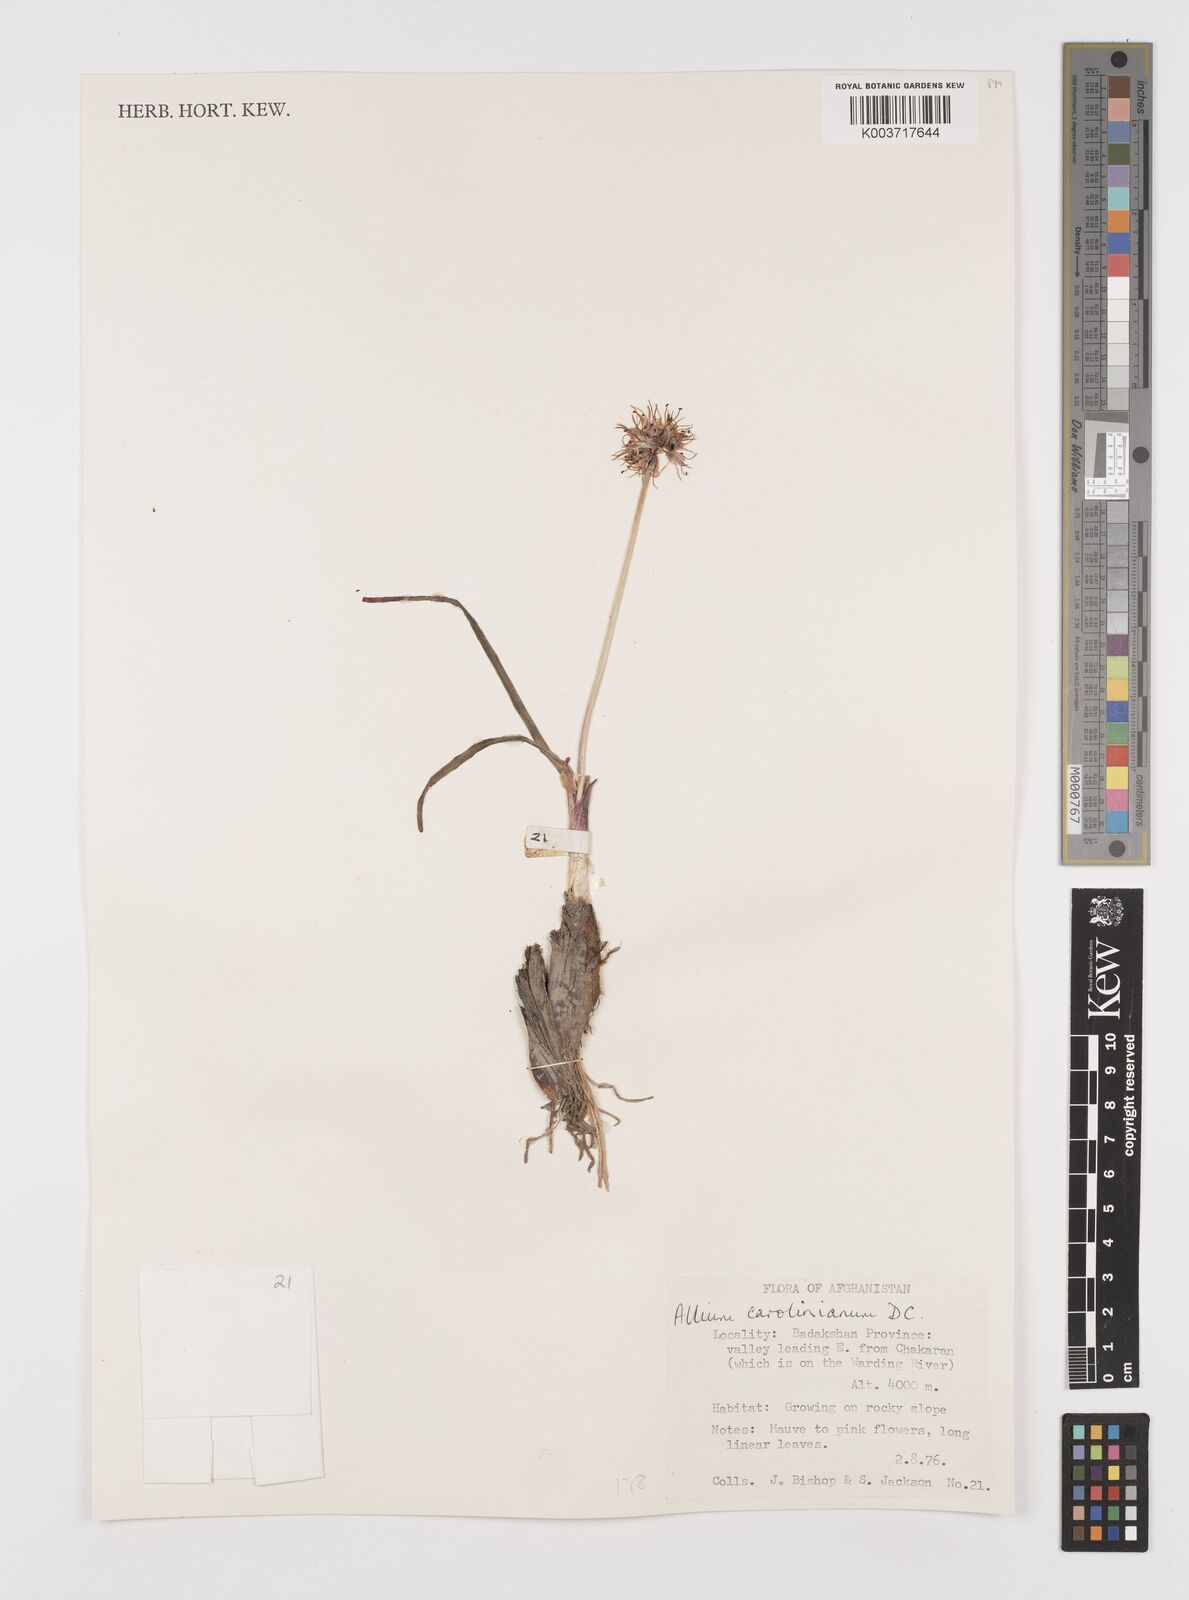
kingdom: Plantae
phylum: Tracheophyta
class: Liliopsida
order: Asparagales
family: Amaryllidaceae
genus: Allium
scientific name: Allium carolinianum
